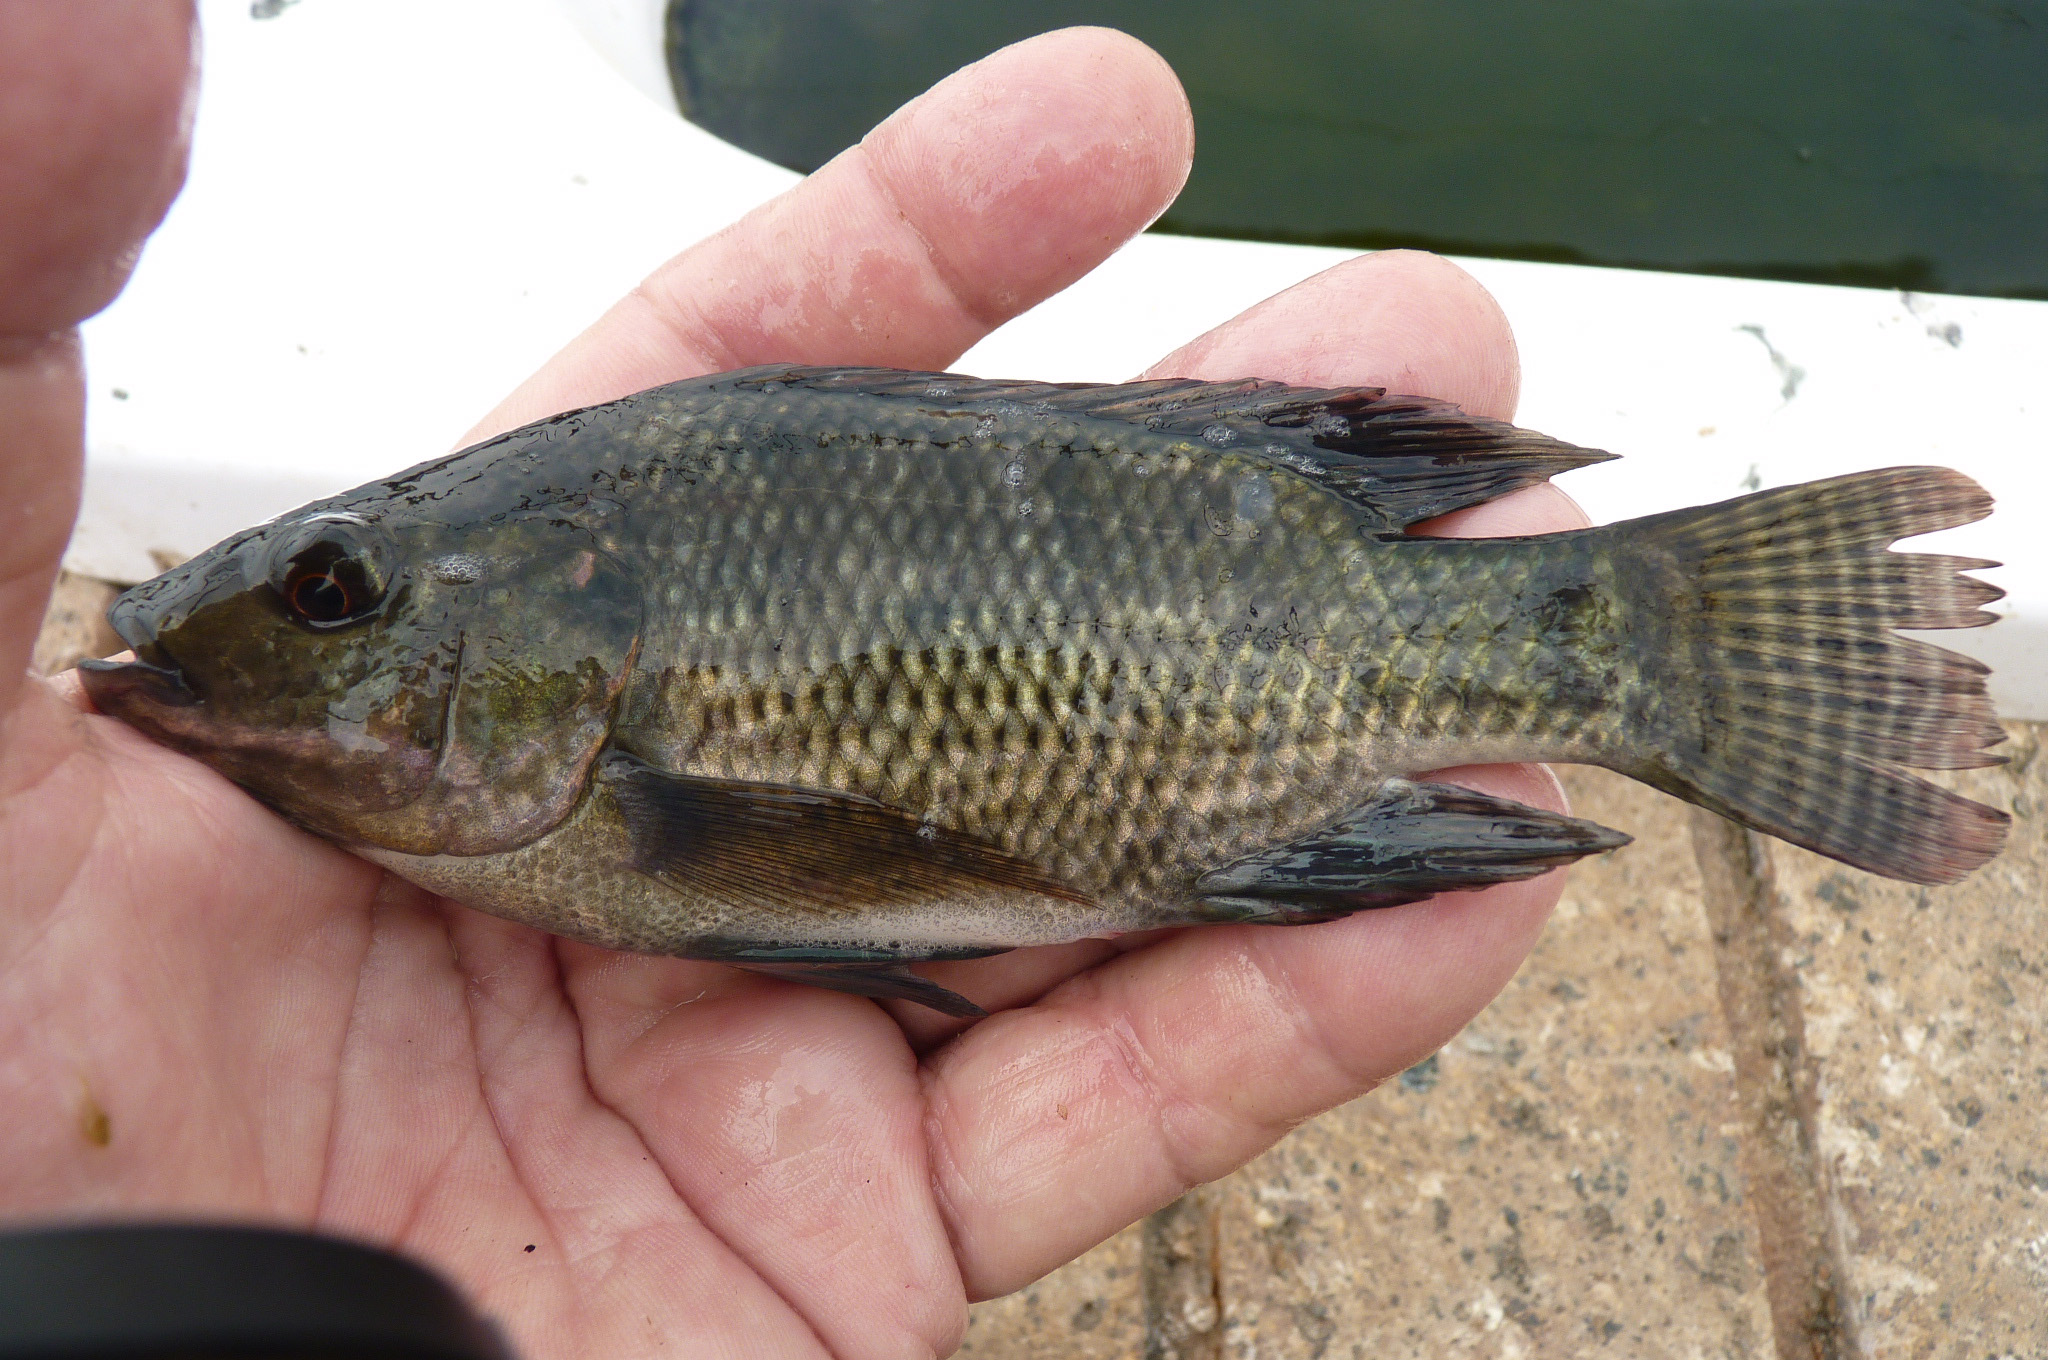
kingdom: Animalia
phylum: Chordata
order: Perciformes
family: Cichlidae
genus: Oreochromis
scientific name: Oreochromis niloticus
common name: Nile tilapia
